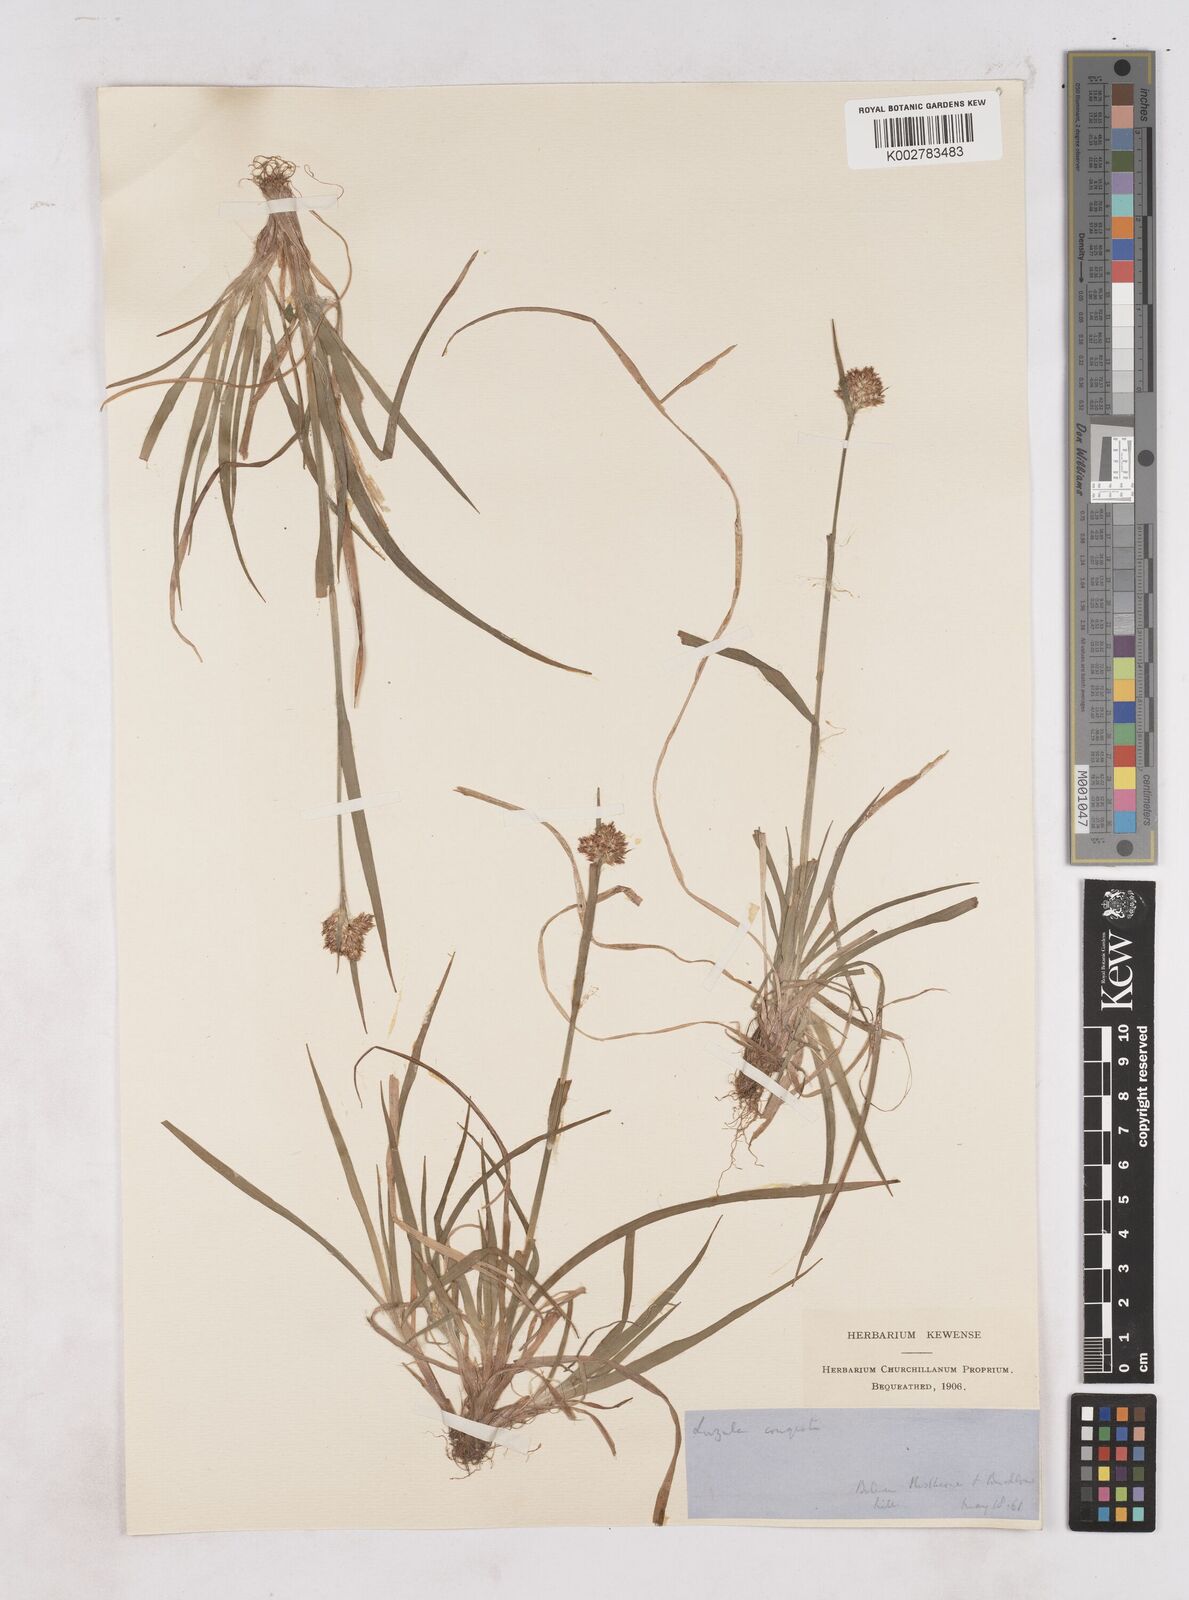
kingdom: Plantae
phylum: Tracheophyta
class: Liliopsida
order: Poales
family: Juncaceae
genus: Luzula
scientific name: Luzula campestris
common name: Field wood-rush
